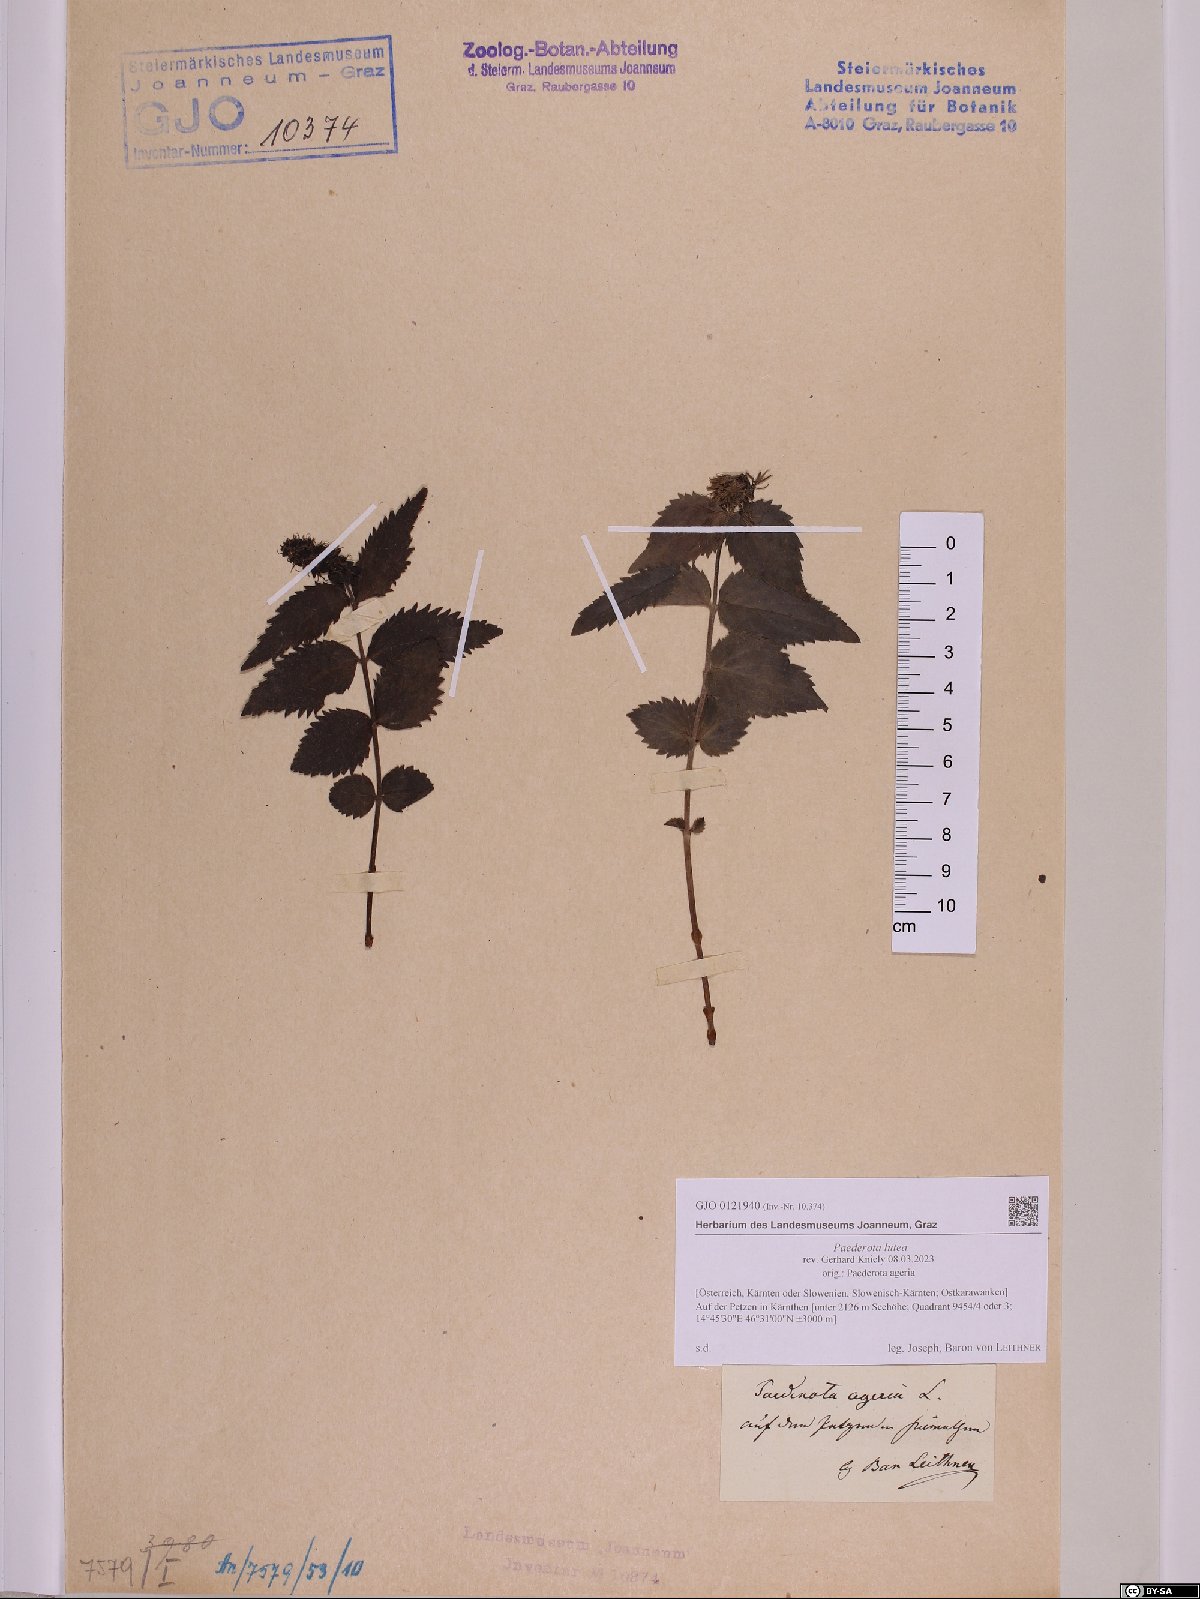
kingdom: Plantae
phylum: Tracheophyta
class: Magnoliopsida
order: Lamiales
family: Plantaginaceae
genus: Paederota
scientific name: Paederota lutea
